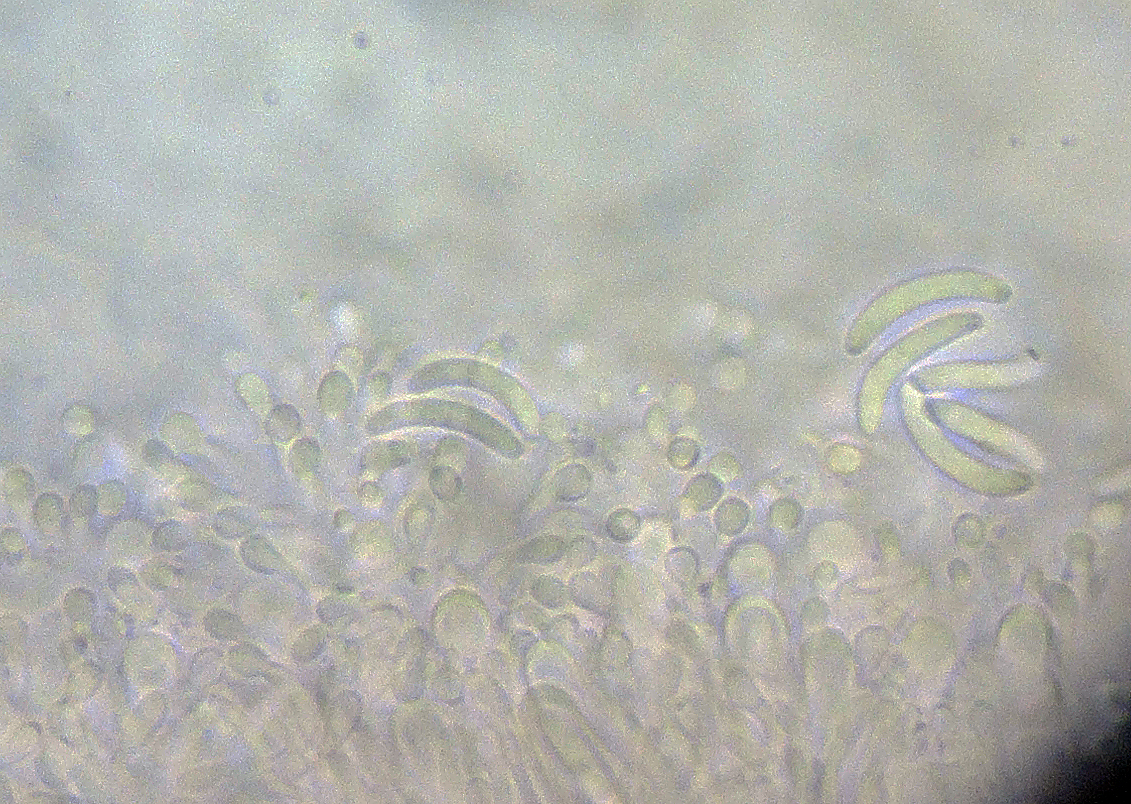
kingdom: Fungi
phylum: Ascomycota
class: Lecanoromycetes
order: Ostropales
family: Stictidaceae
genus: Cryptodiscus
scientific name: Cryptodiscus pini
